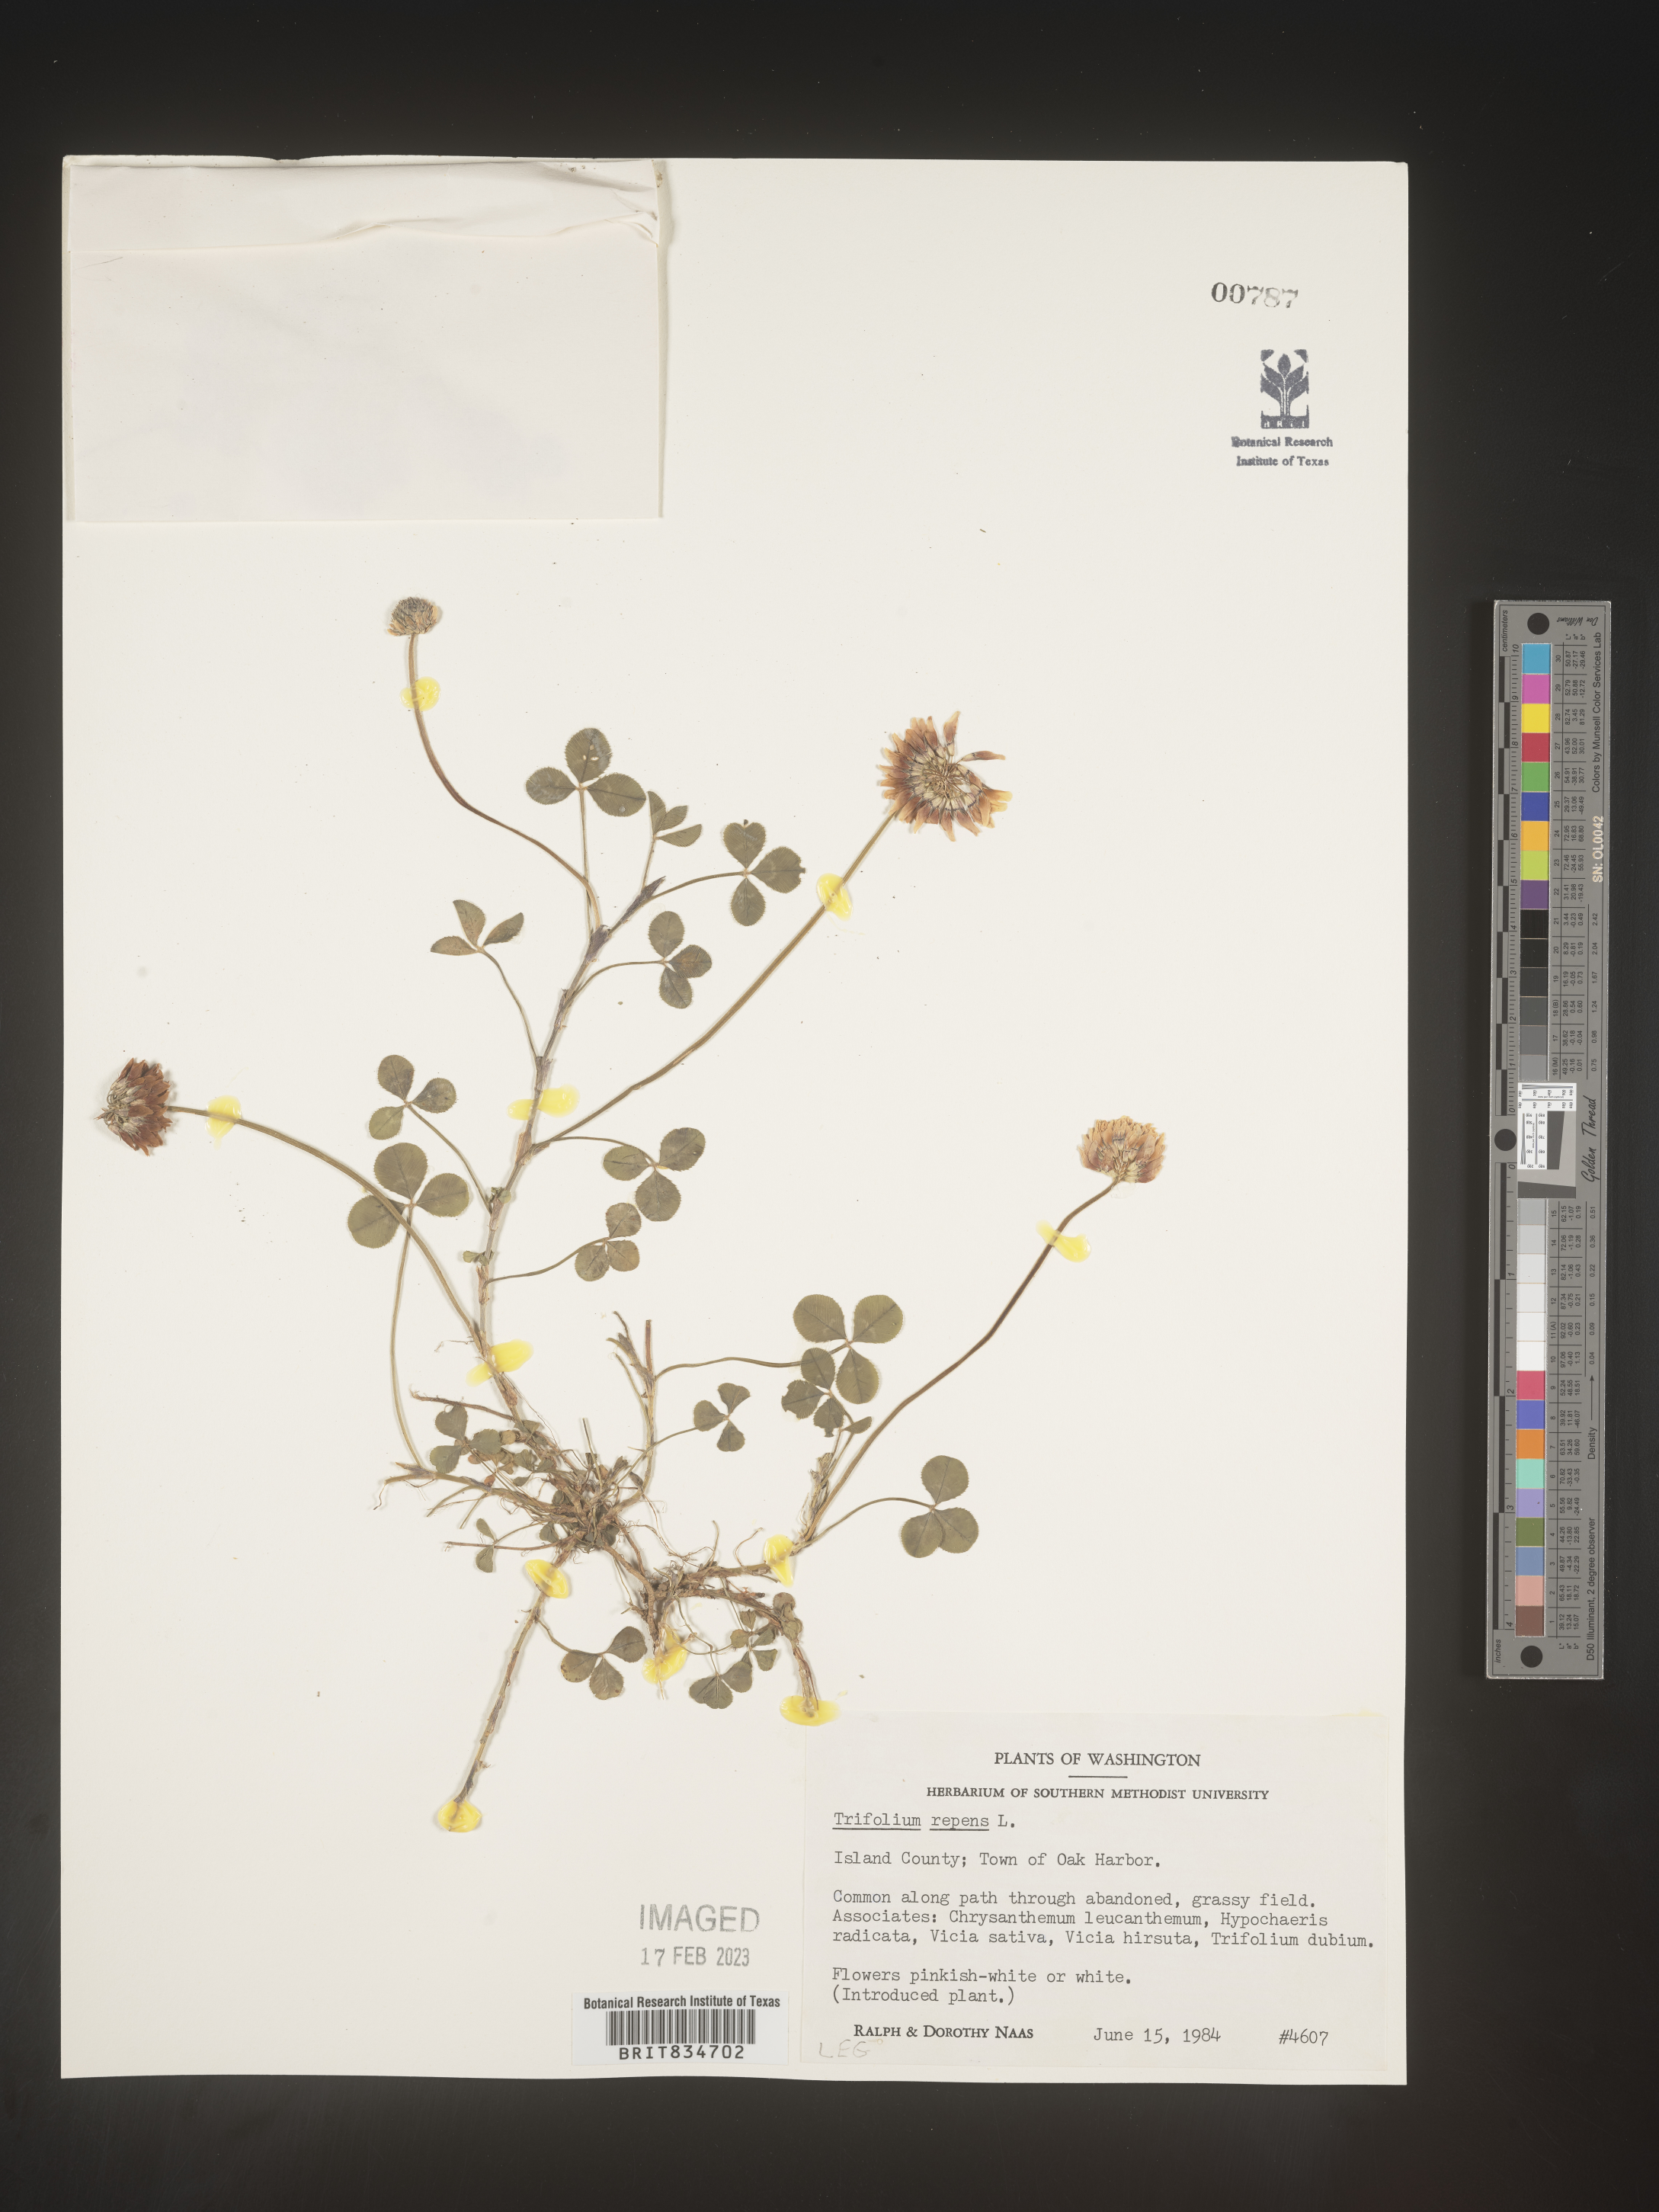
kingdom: Plantae
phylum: Tracheophyta
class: Magnoliopsida
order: Fabales
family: Fabaceae
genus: Trifolium
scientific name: Trifolium repens
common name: White clover
